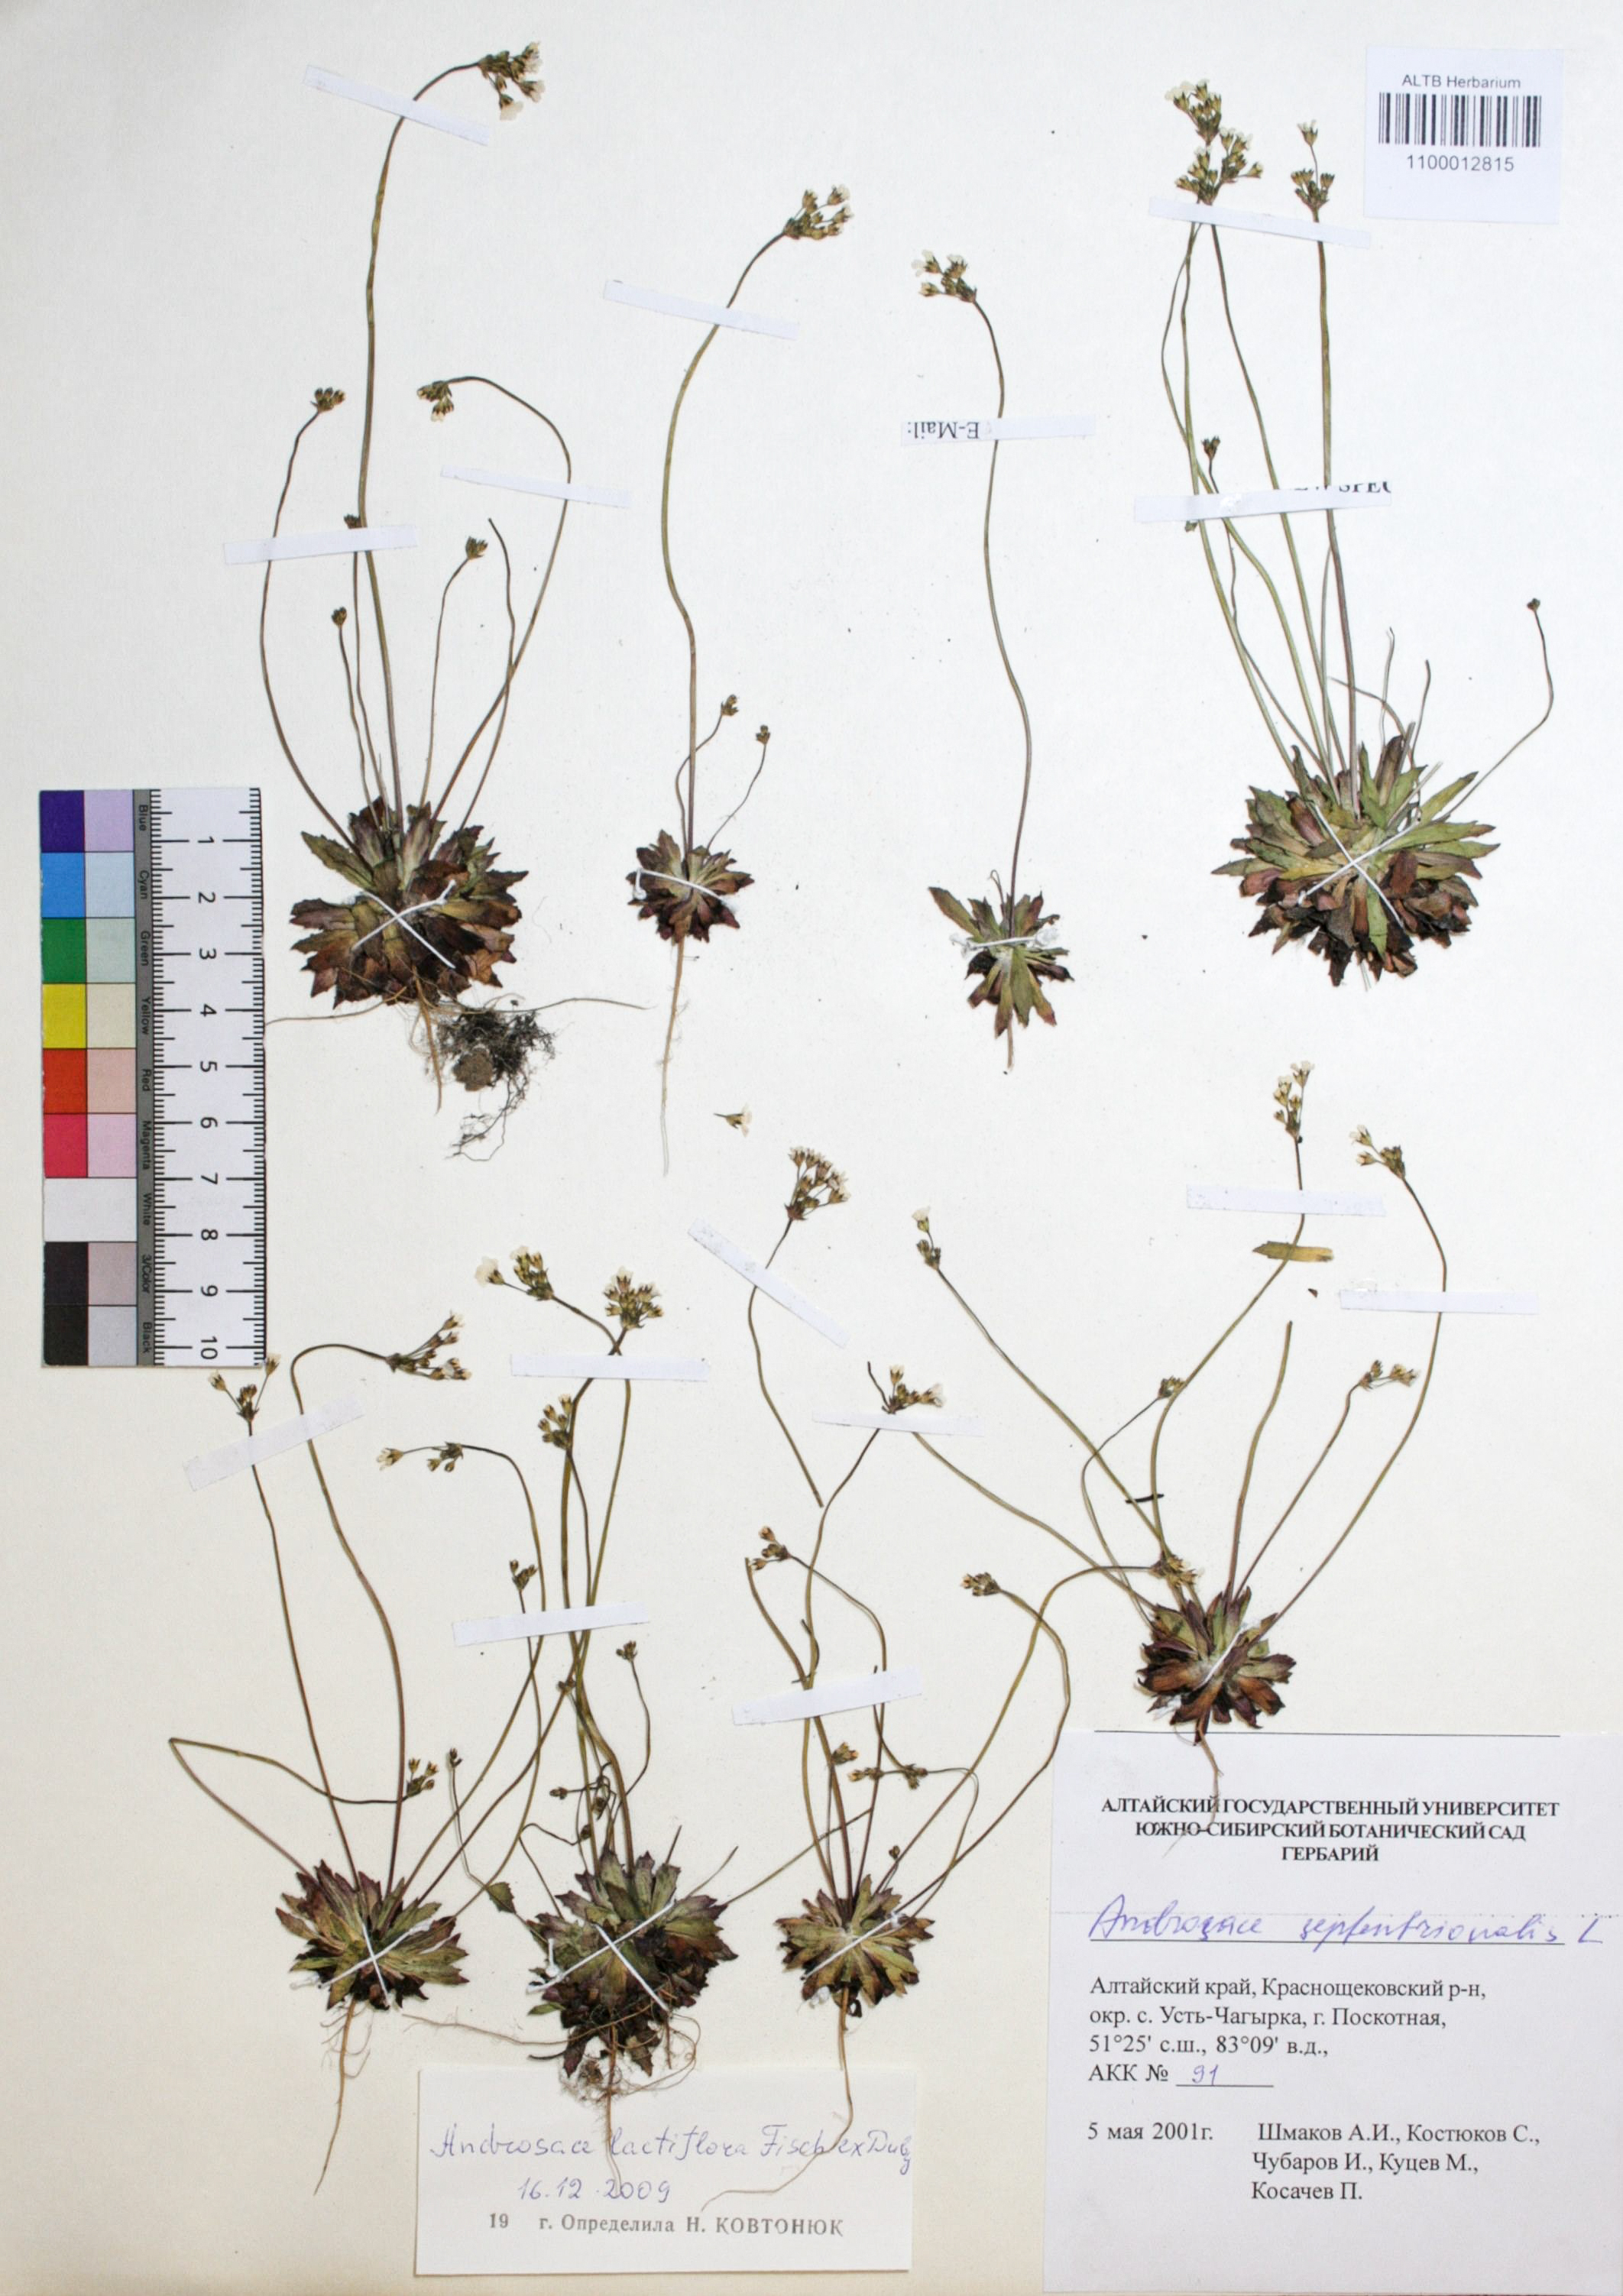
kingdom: Plantae
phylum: Tracheophyta
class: Magnoliopsida
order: Ericales
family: Primulaceae
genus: Androsace
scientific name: Androsace lactiflora
